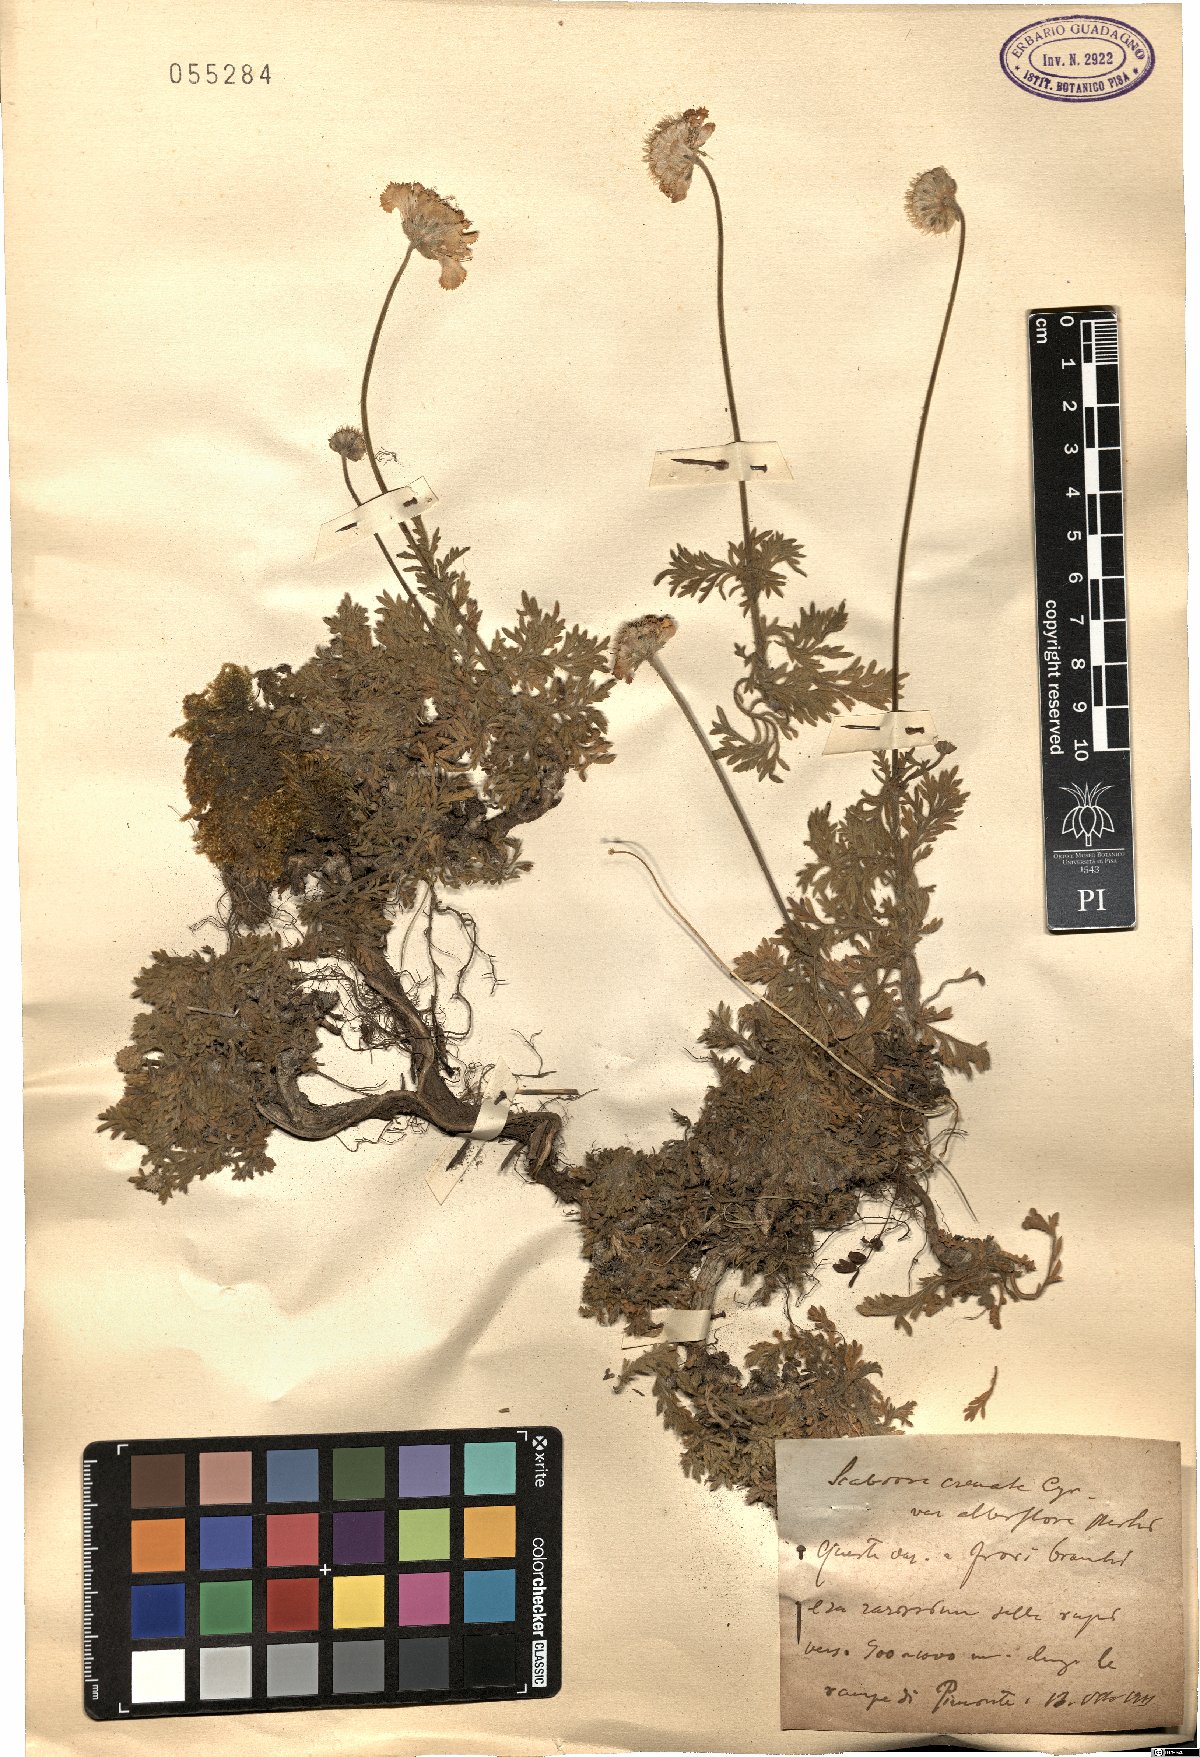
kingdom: Plantae
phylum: Tracheophyta
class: Magnoliopsida
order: Dipsacales
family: Caprifoliaceae
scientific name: Caprifoliaceae
